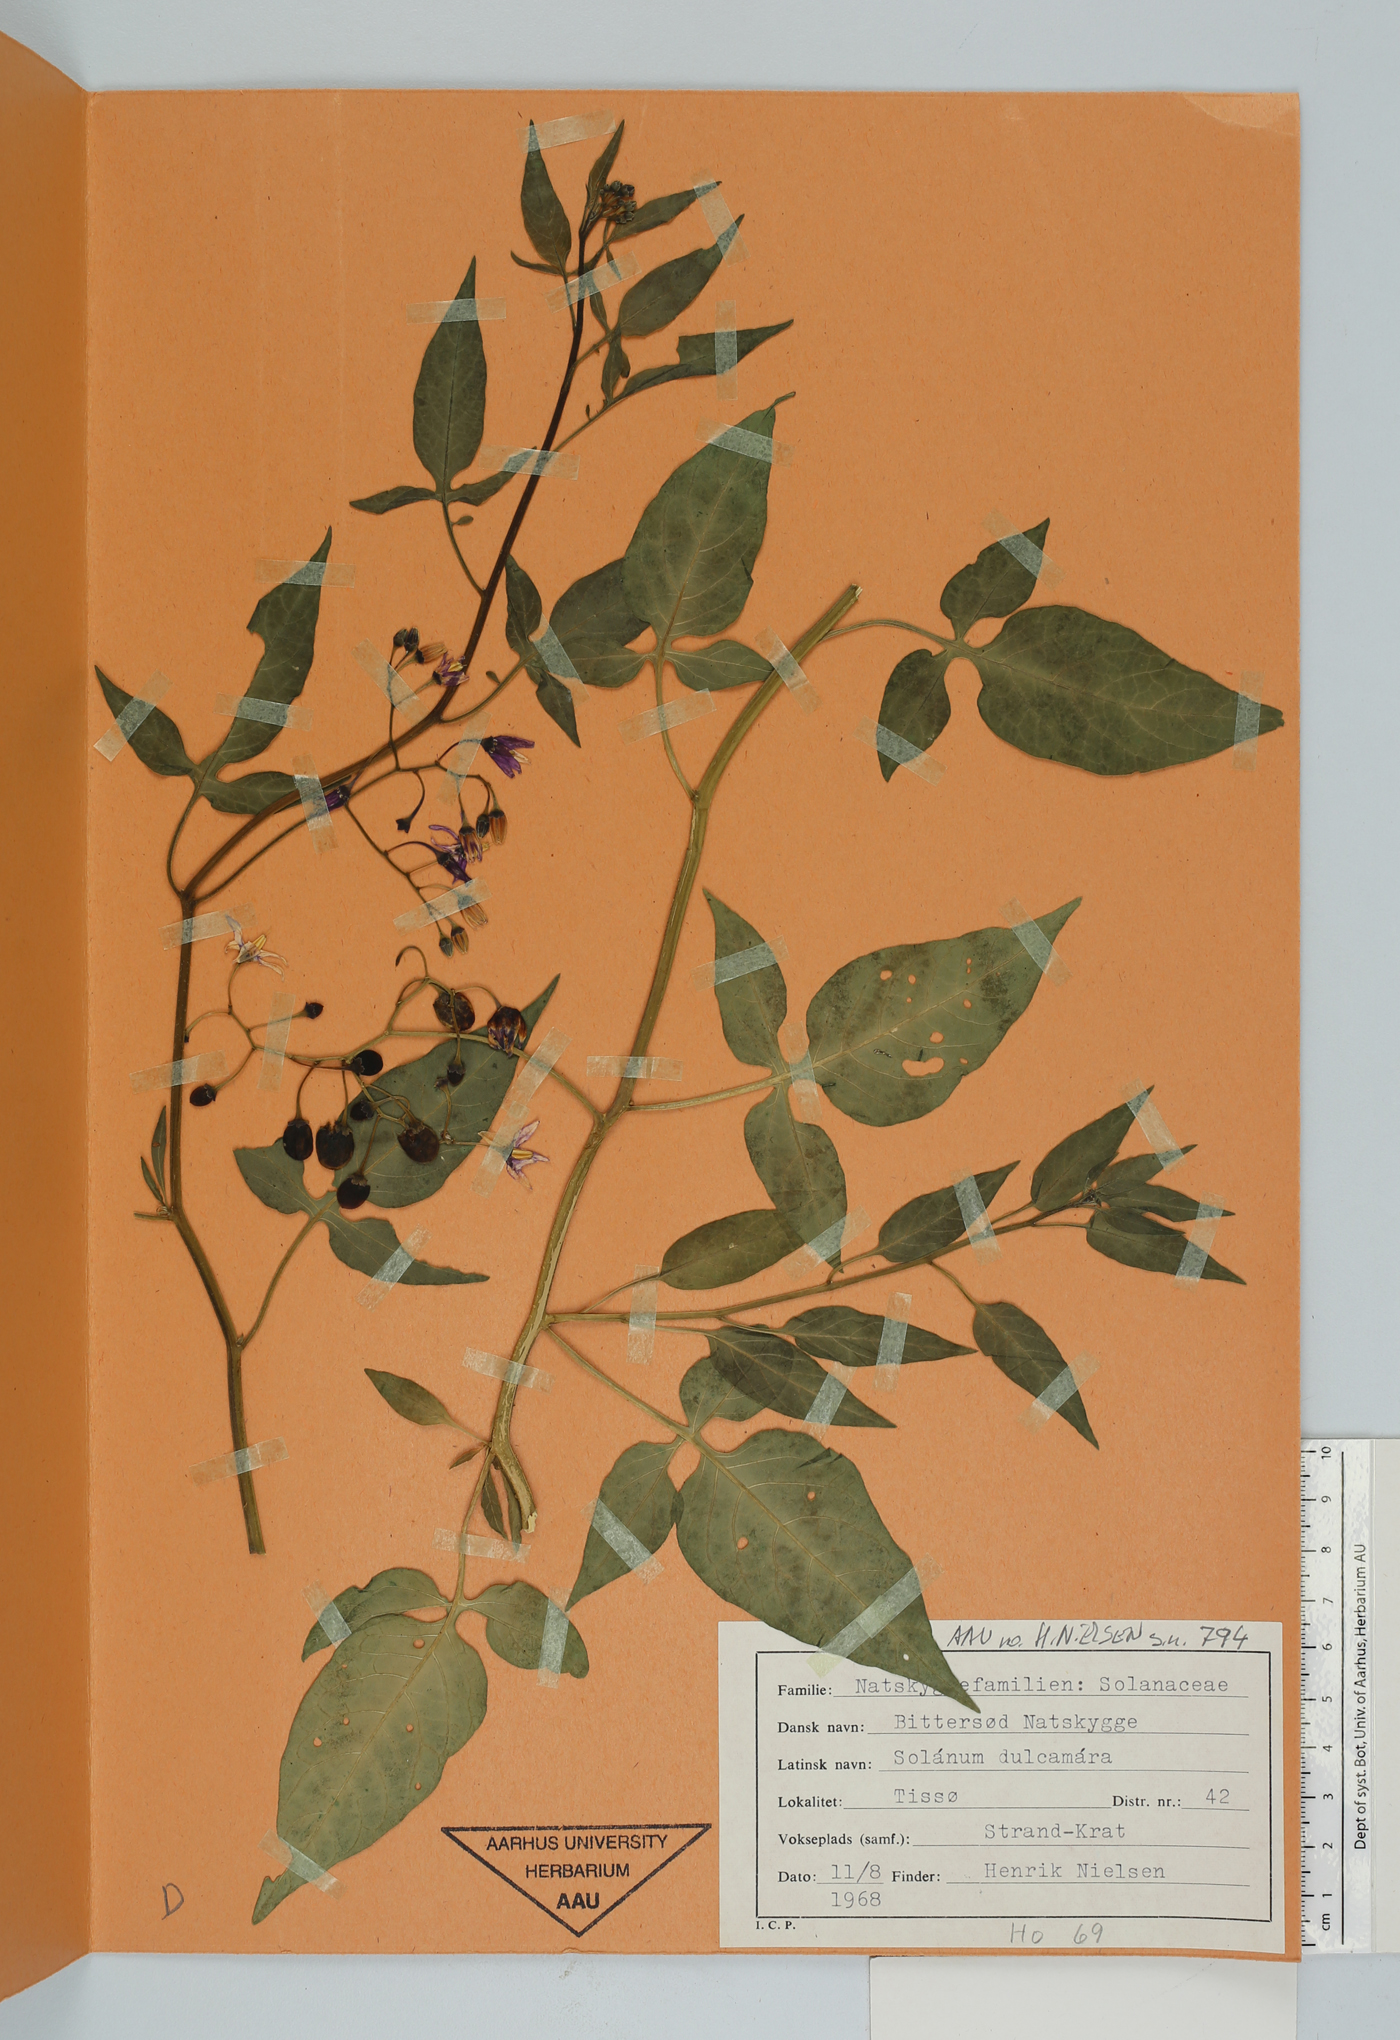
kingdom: Plantae
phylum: Tracheophyta
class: Magnoliopsida
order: Solanales
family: Solanaceae
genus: Solanum
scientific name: Solanum dulcamara
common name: Climbing nightshade
